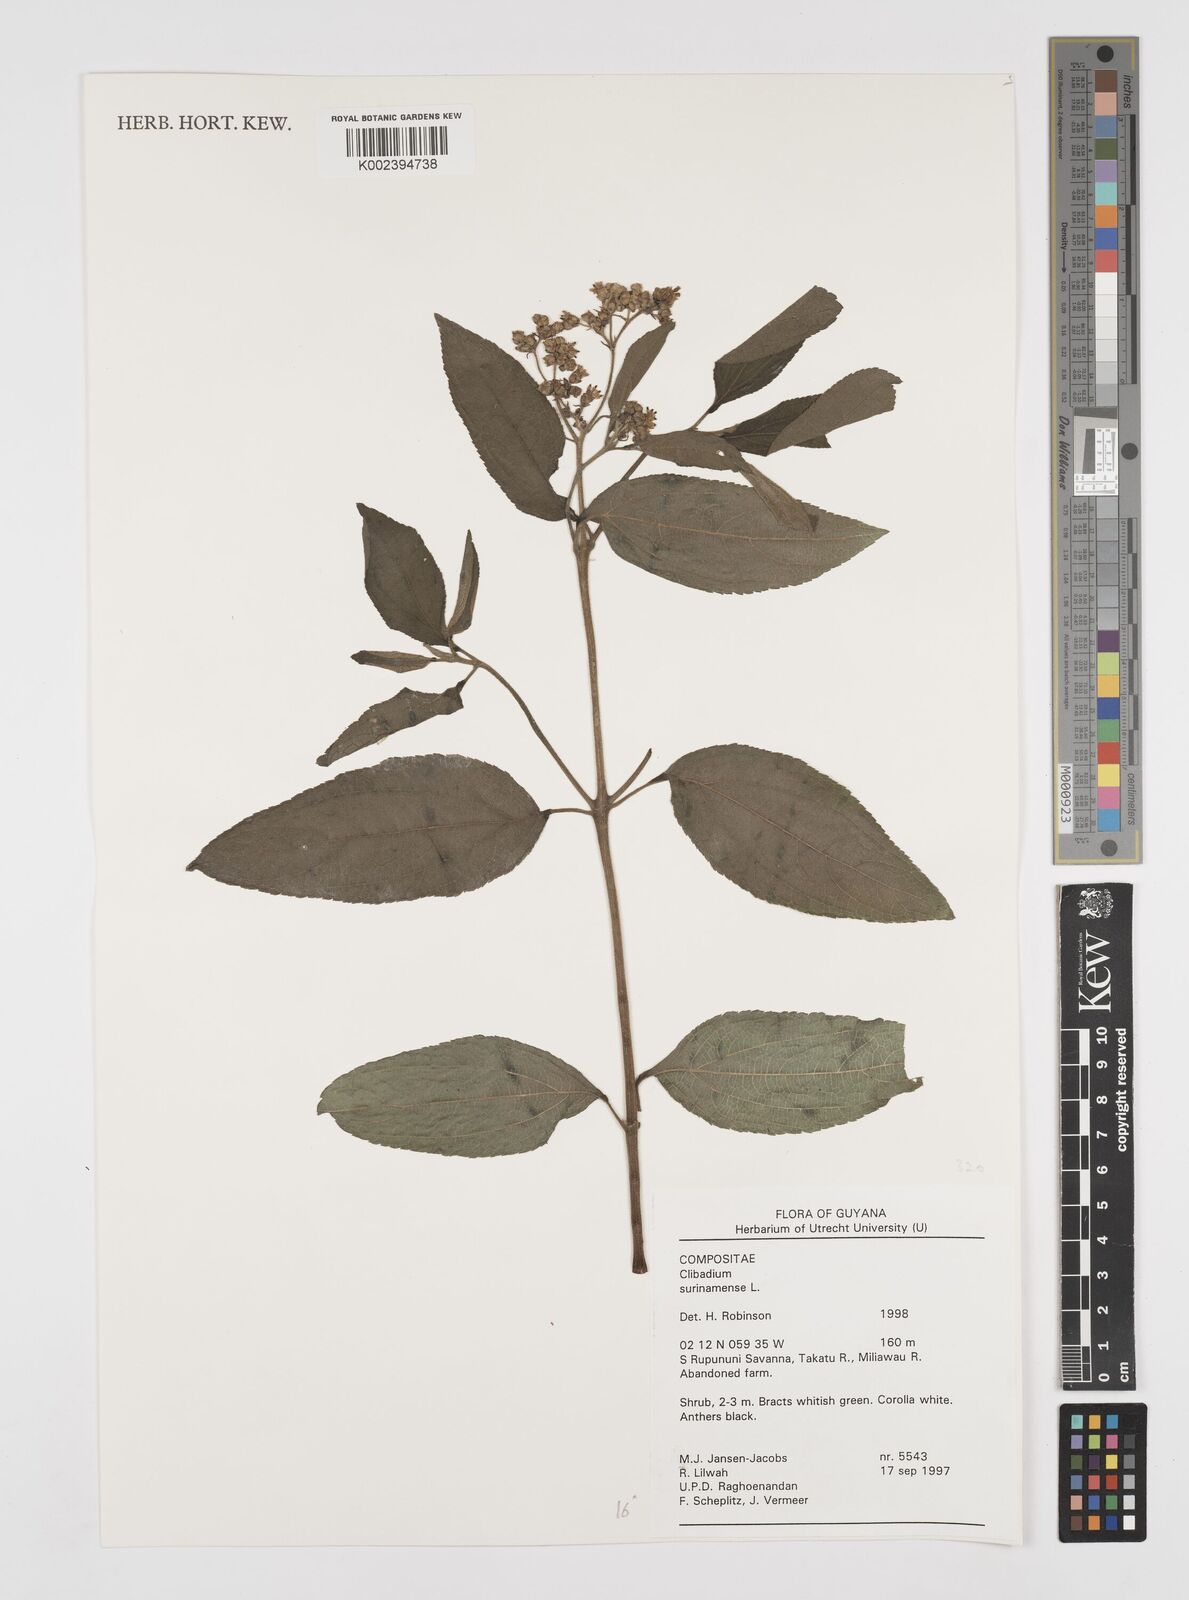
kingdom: Plantae
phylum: Tracheophyta
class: Magnoliopsida
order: Asterales
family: Asteraceae
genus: Clibadium
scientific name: Clibadium surinamense
